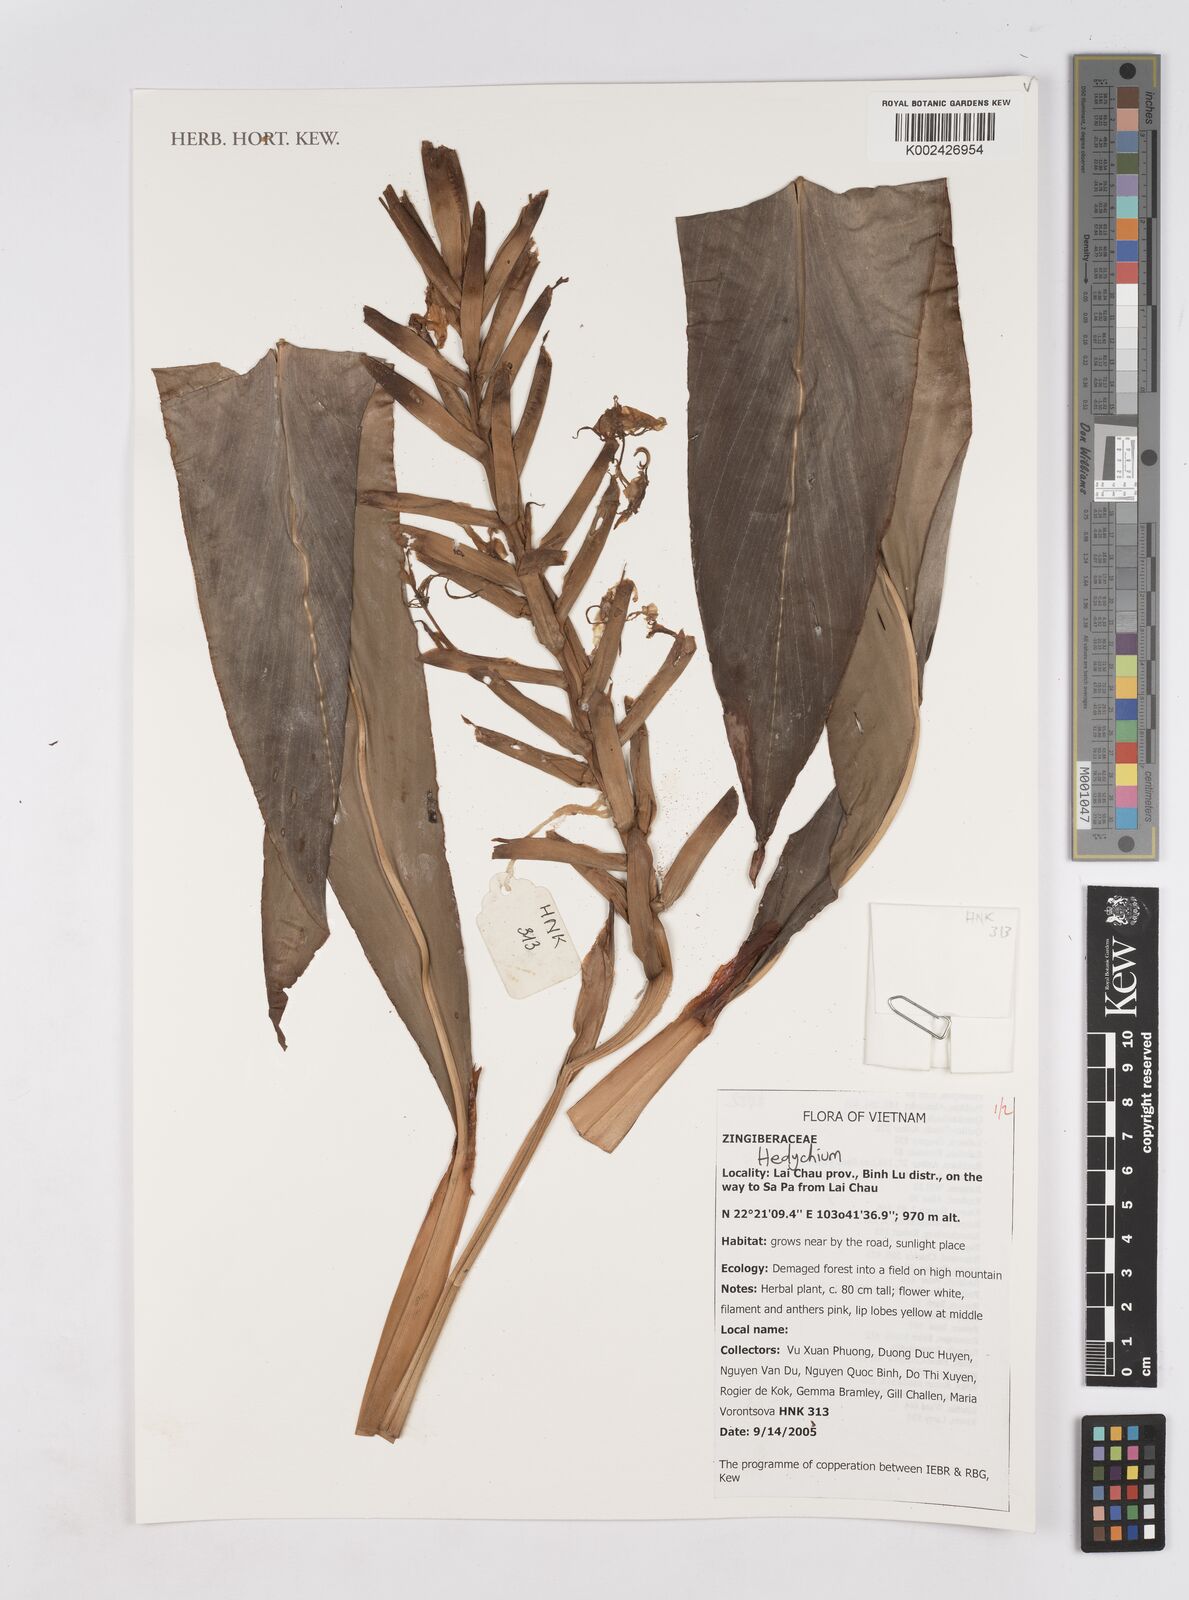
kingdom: Plantae
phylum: Tracheophyta
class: Liliopsida
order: Zingiberales
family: Zingiberaceae
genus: Hedychium
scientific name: Hedychium
